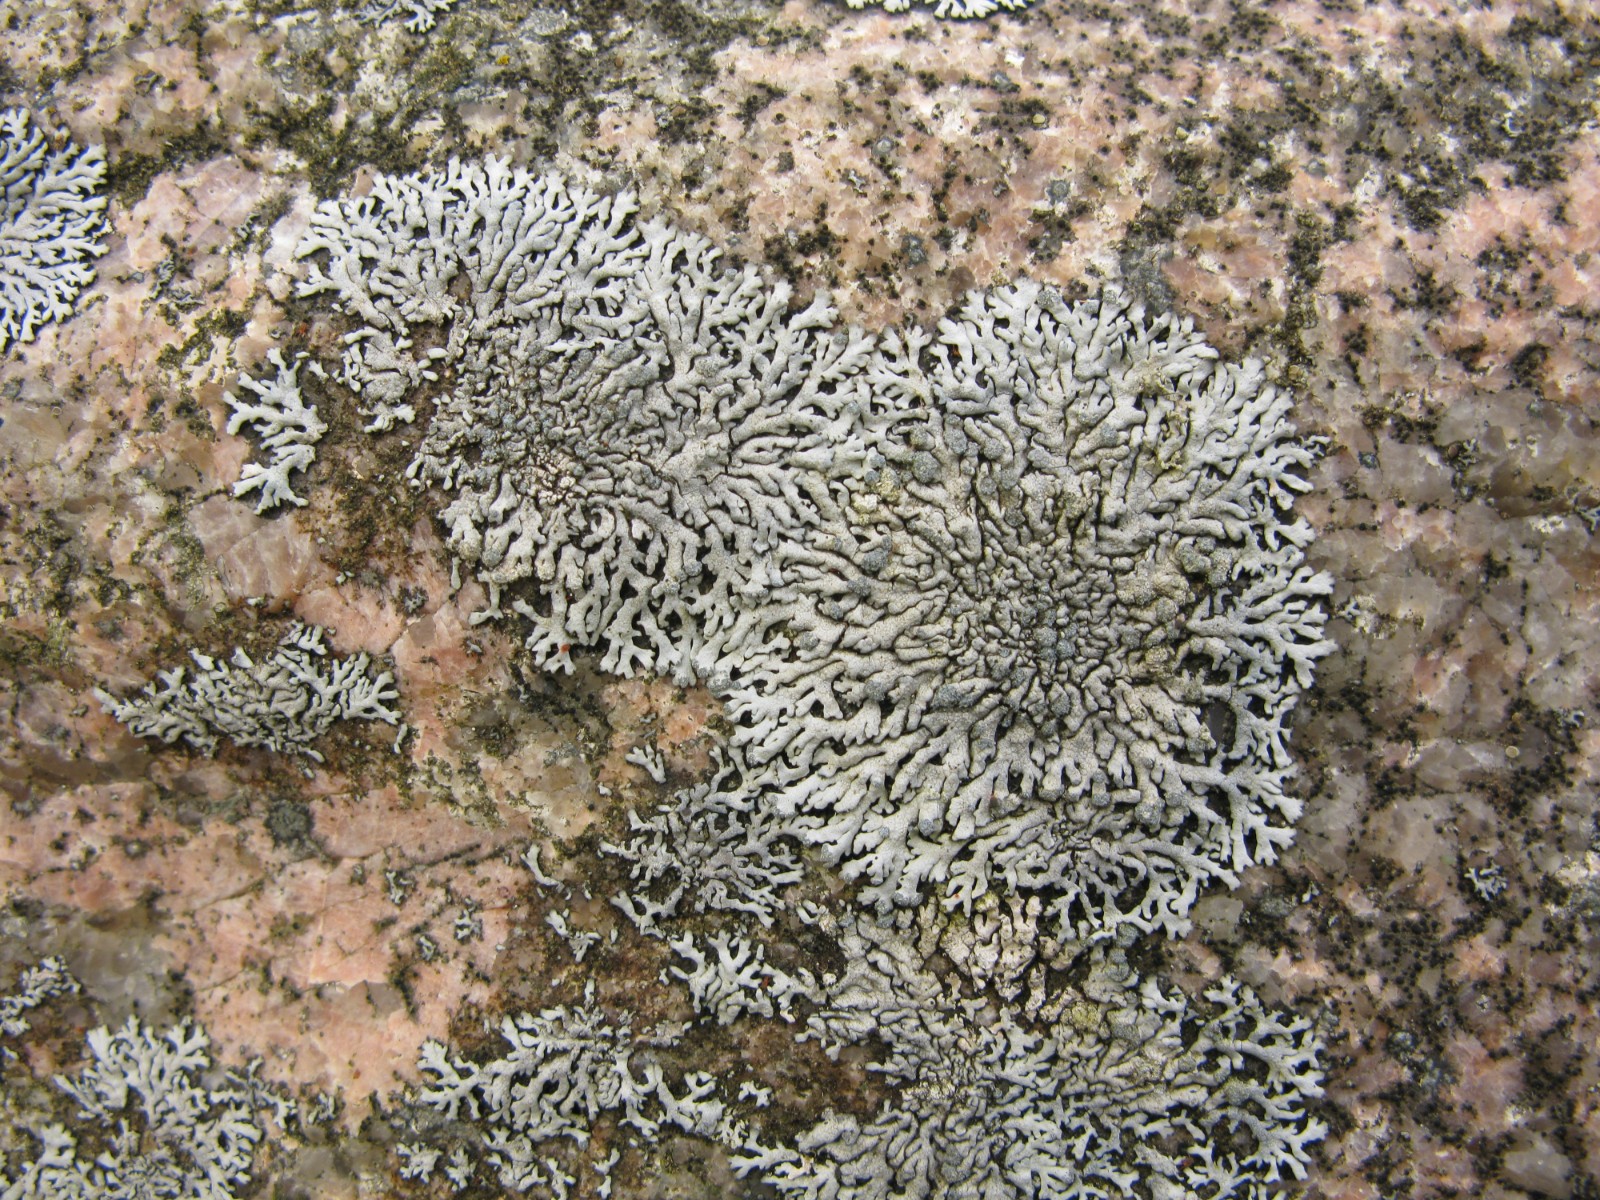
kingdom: Fungi
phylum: Ascomycota
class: Lecanoromycetes
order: Caliciales
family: Physciaceae
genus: Physcia
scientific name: Physcia caesia
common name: blågrå rosetlav
